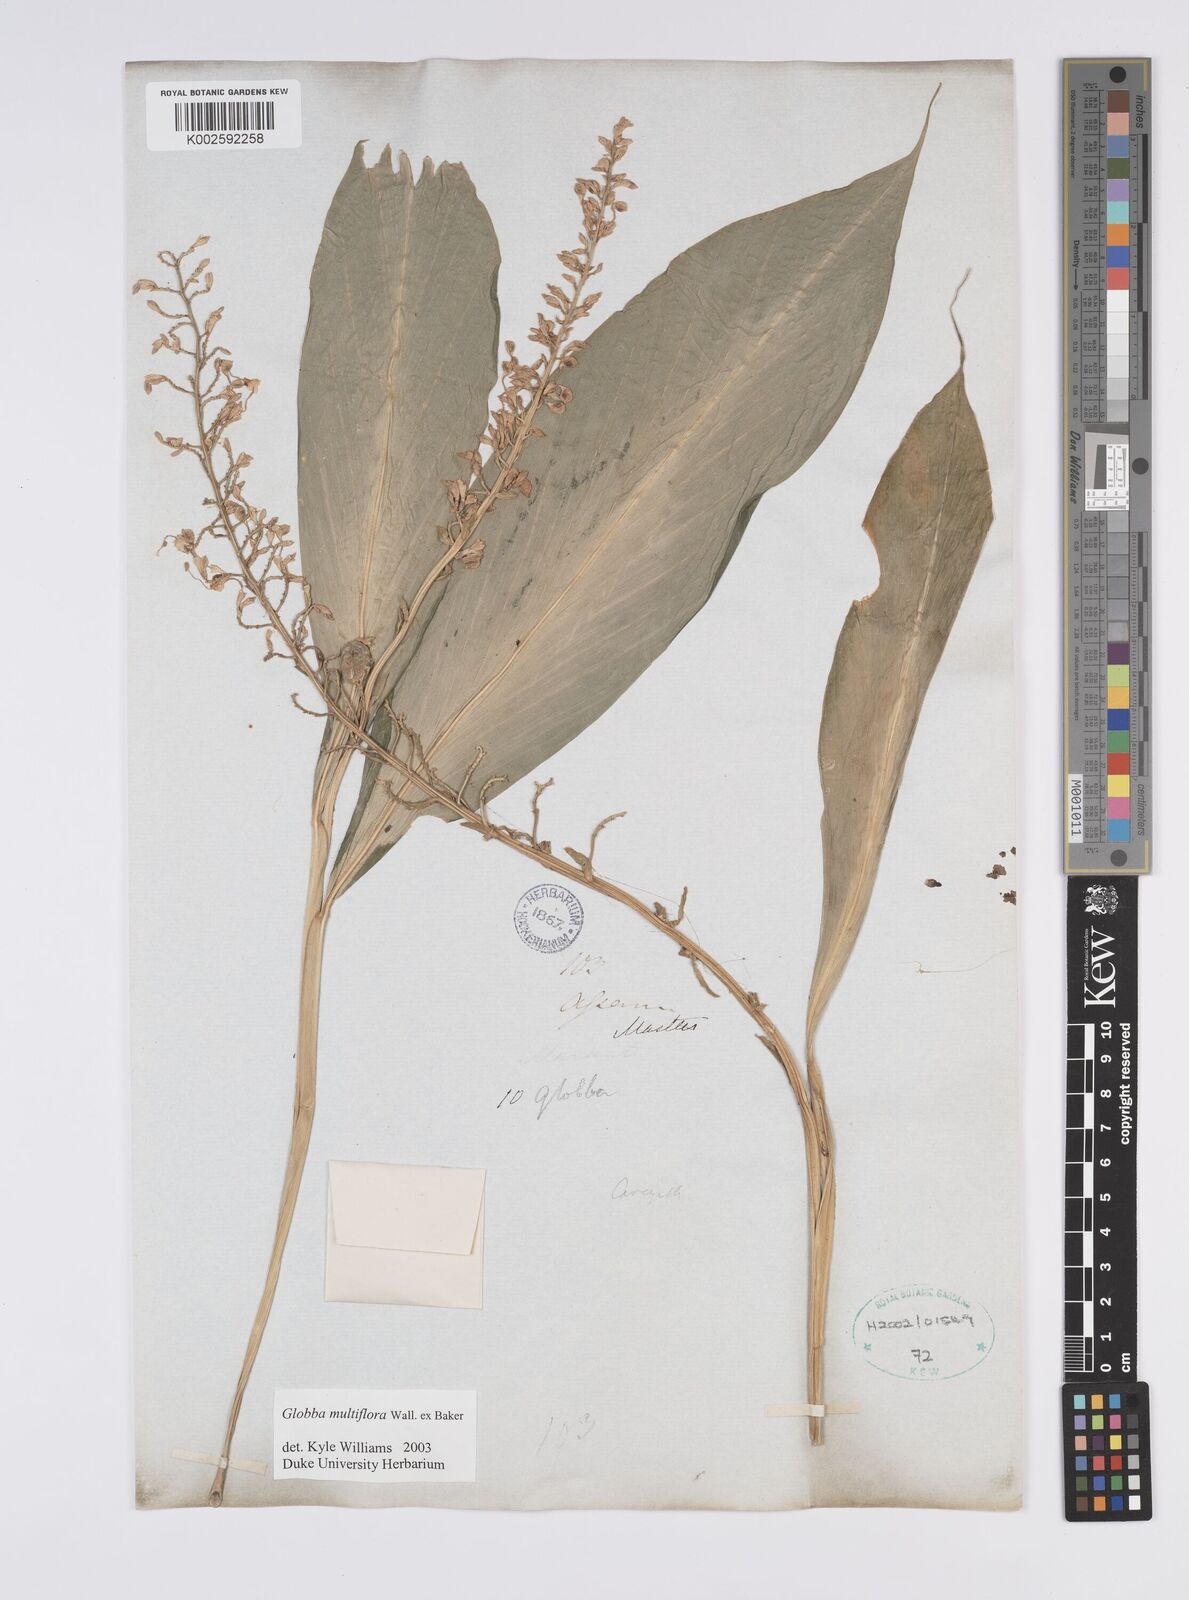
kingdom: Plantae
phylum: Tracheophyta
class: Liliopsida
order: Zingiberales
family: Zingiberaceae
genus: Globba
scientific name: Globba multiflora
